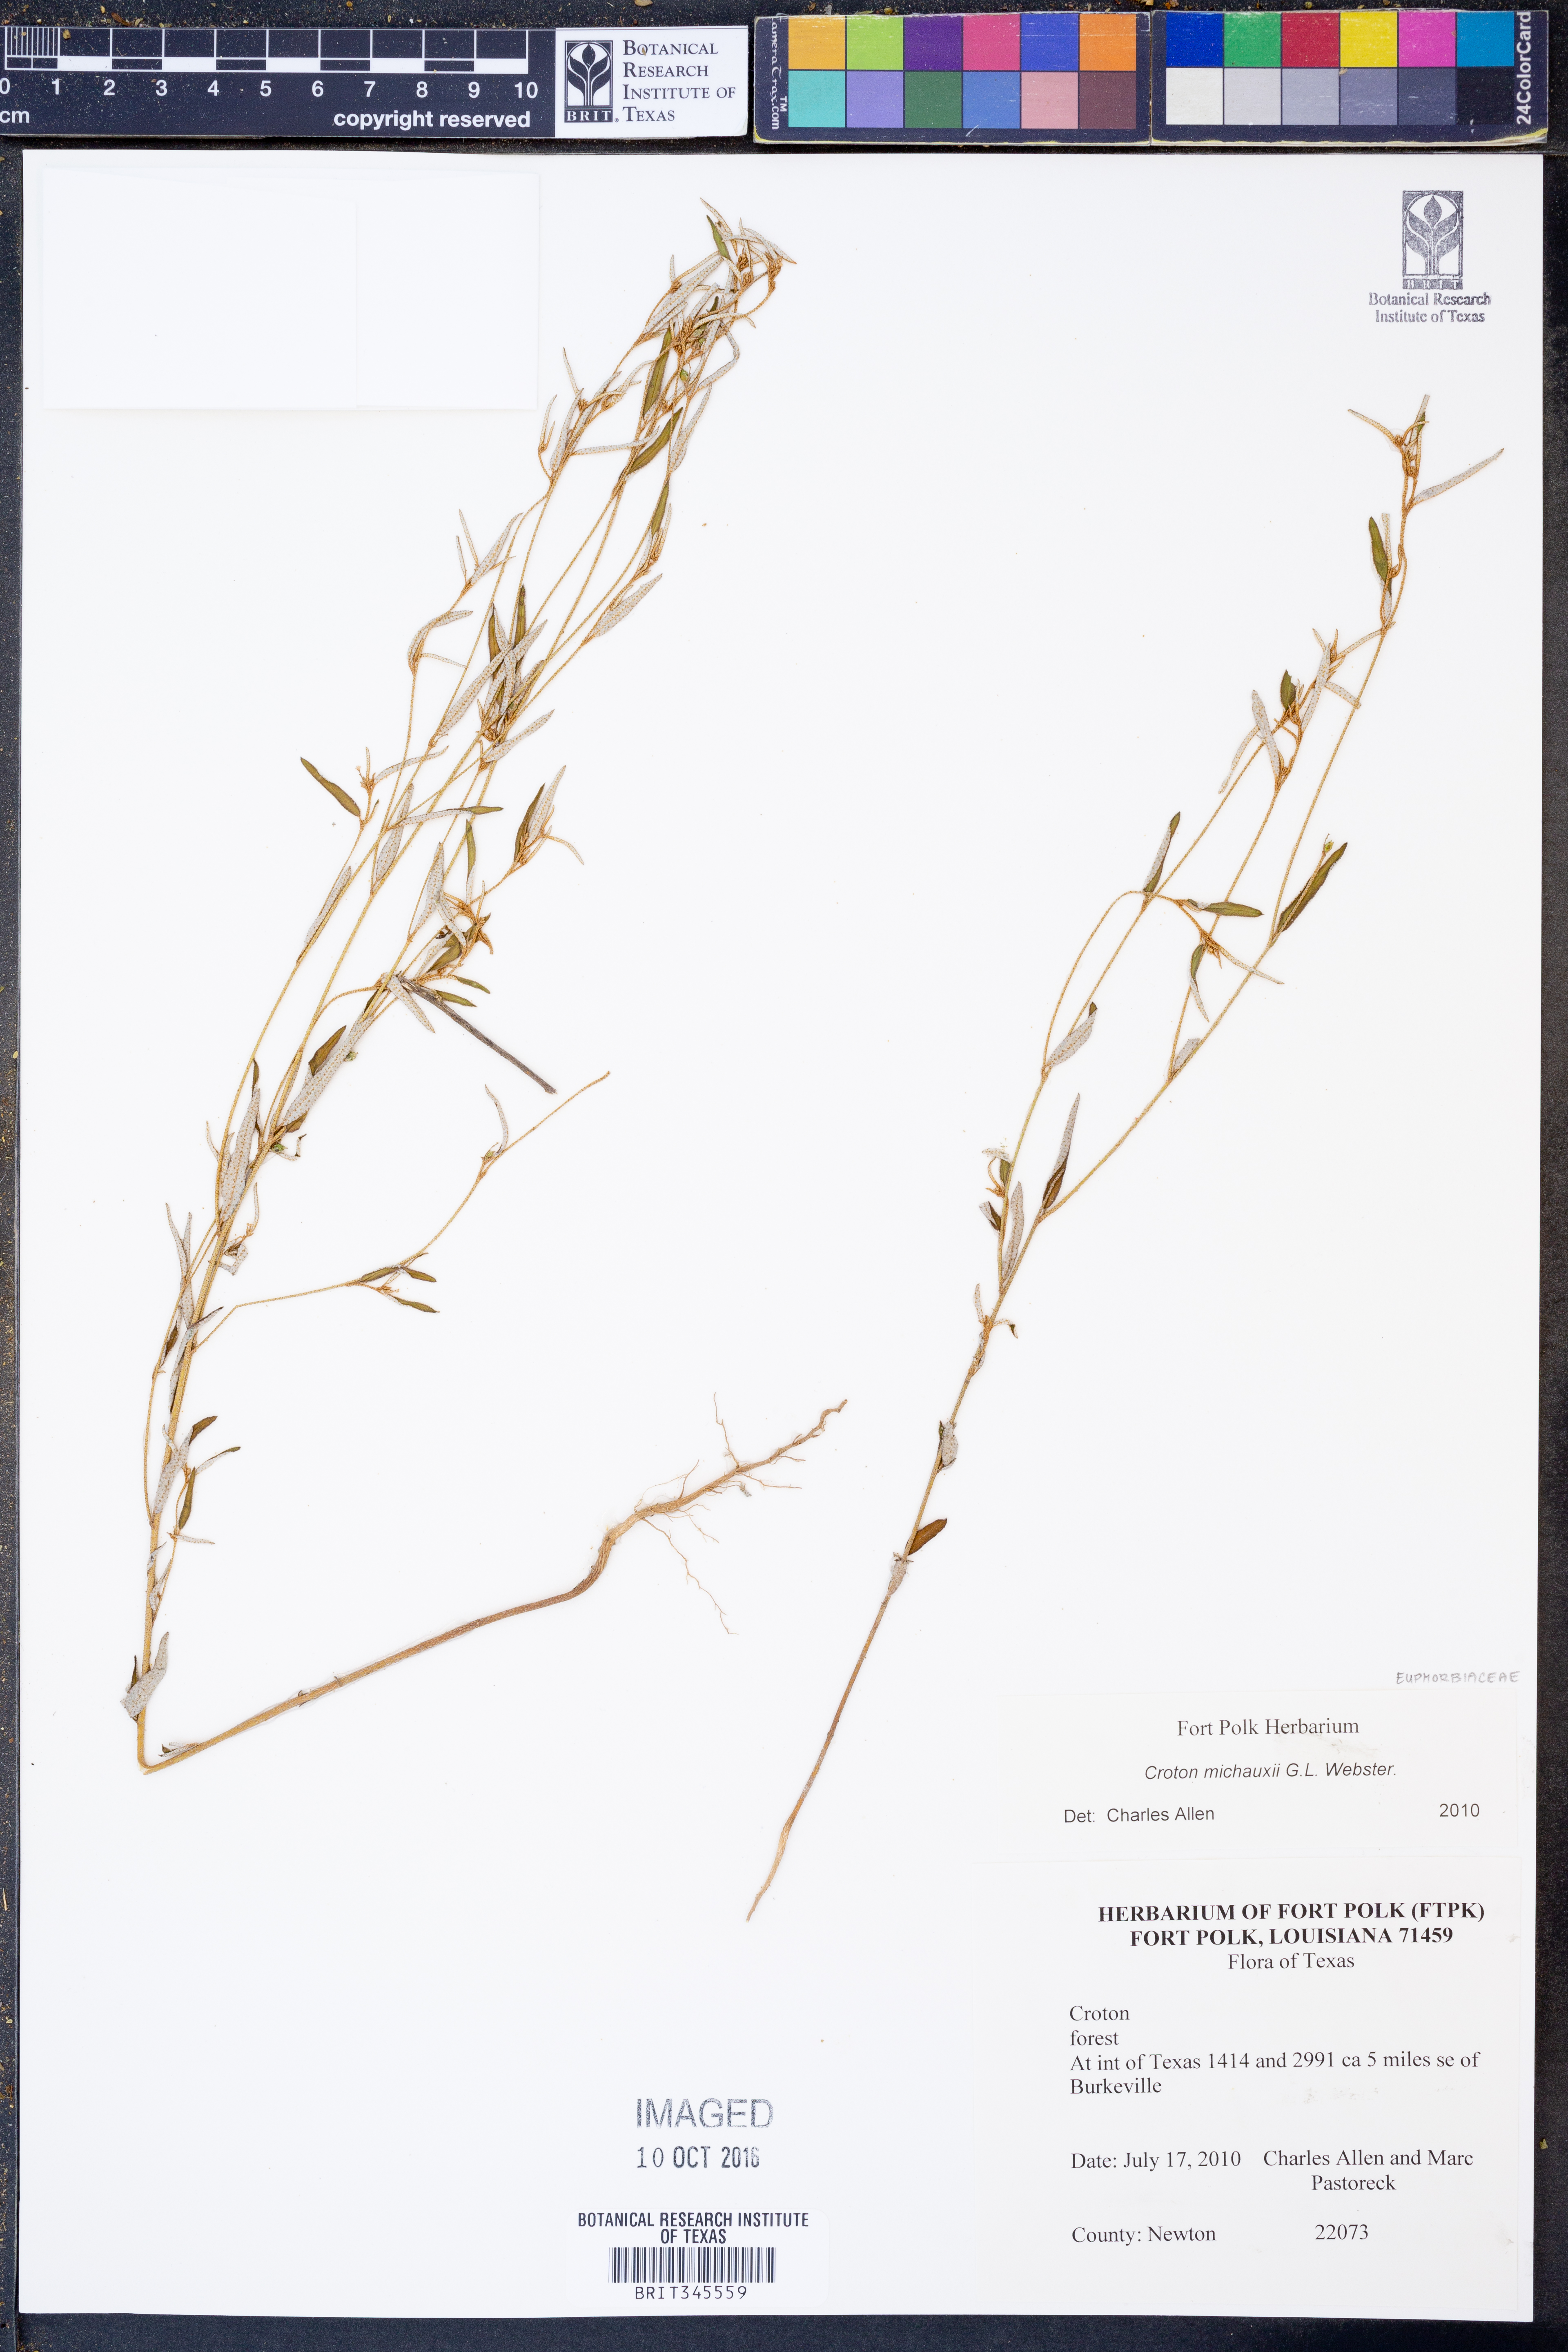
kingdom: Plantae
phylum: Tracheophyta
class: Magnoliopsida
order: Malpighiales
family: Euphorbiaceae
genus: Croton
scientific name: Croton michauxii
